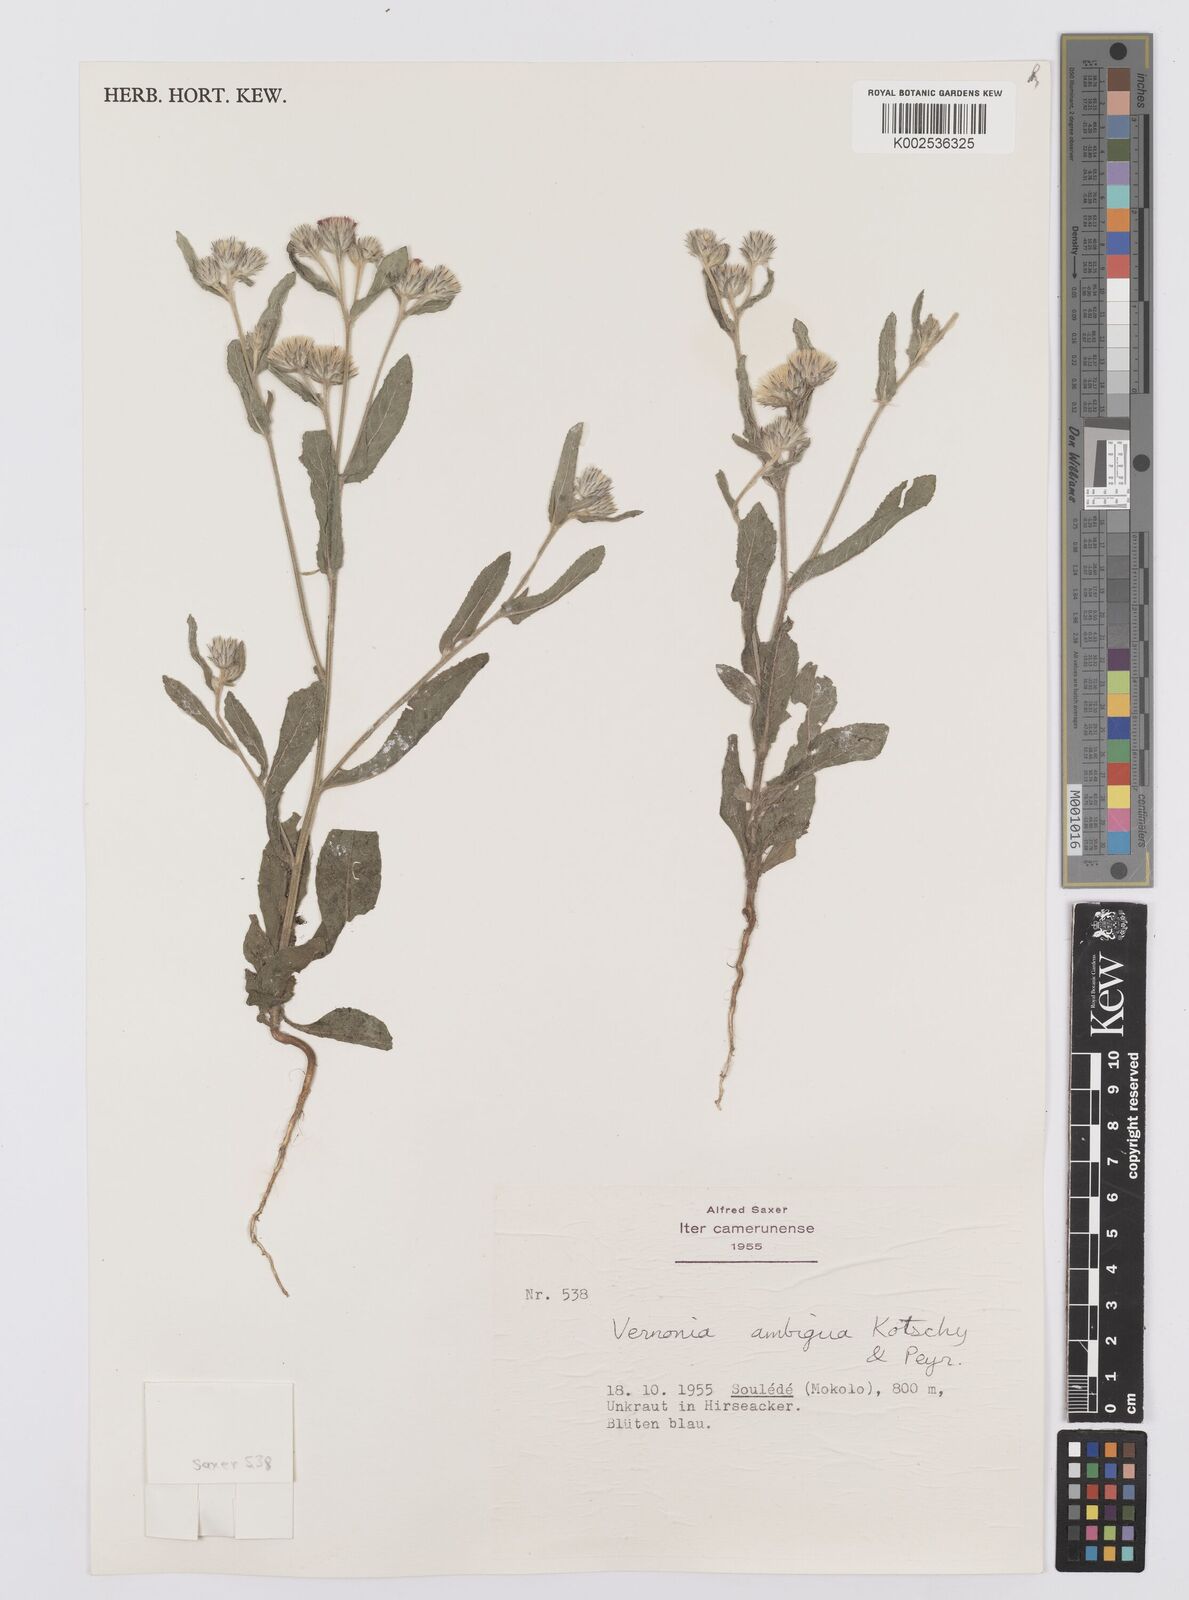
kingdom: Plantae
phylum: Tracheophyta
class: Magnoliopsida
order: Asterales
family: Asteraceae
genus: Vernoniastrum
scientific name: Vernoniastrum ambiguum
